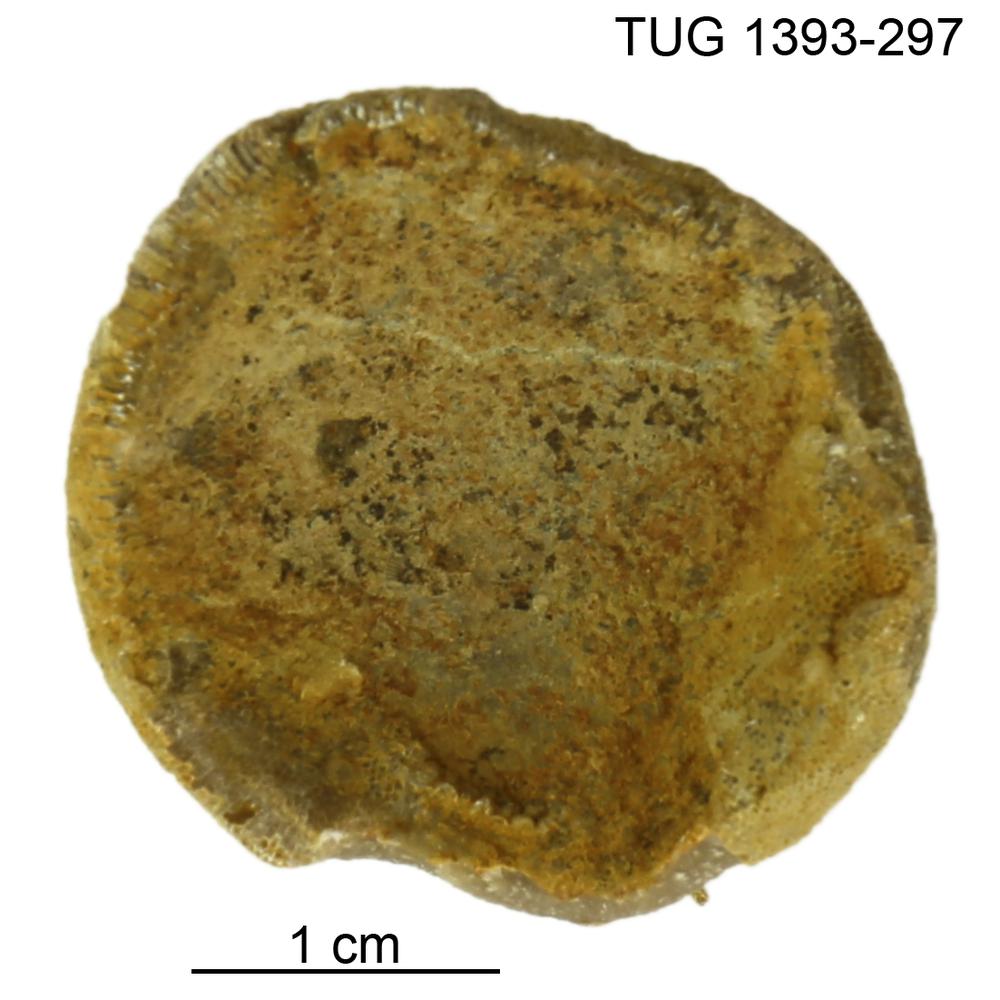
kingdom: Animalia
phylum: Bryozoa
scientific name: Bryozoa
